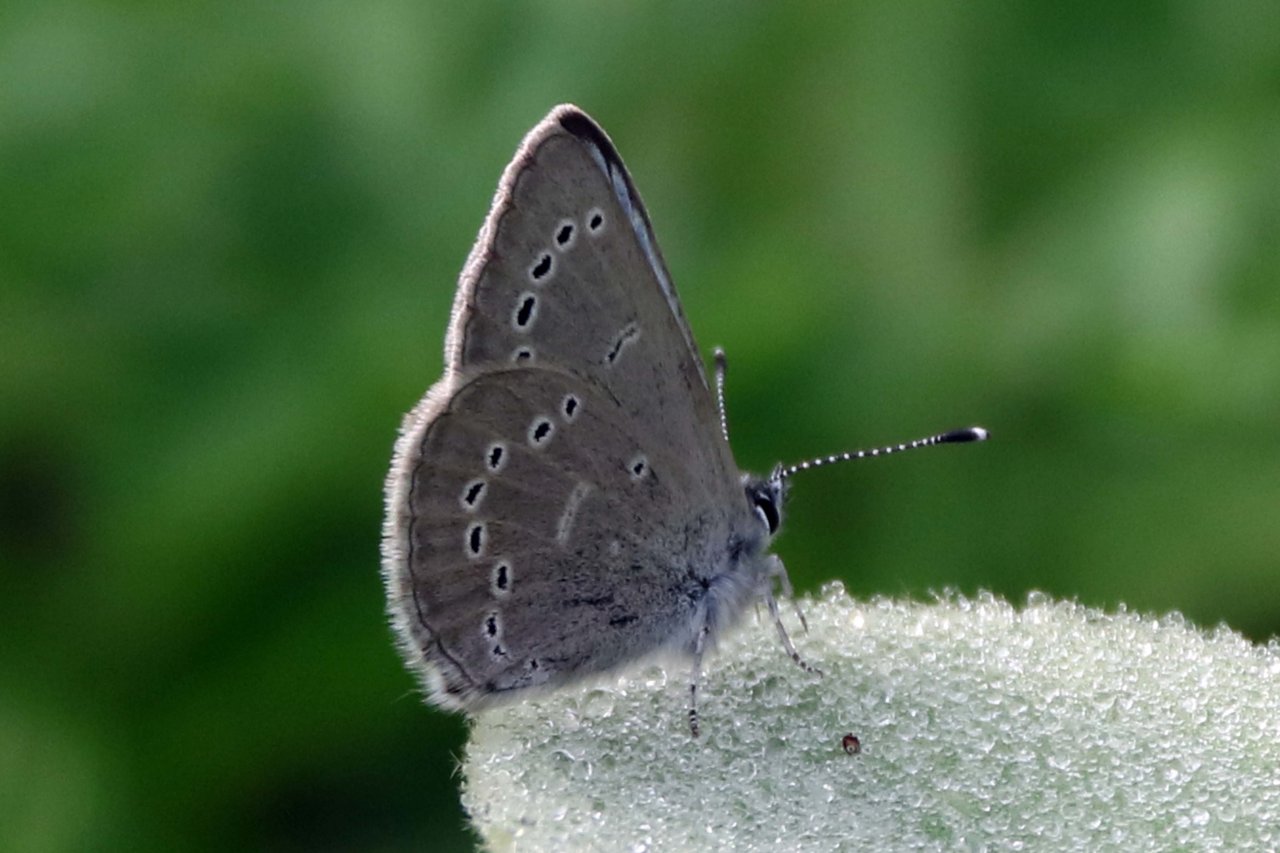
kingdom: Animalia
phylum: Arthropoda
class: Insecta
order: Lepidoptera
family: Lycaenidae
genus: Glaucopsyche
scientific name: Glaucopsyche lygdamus
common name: Silvery Blue
